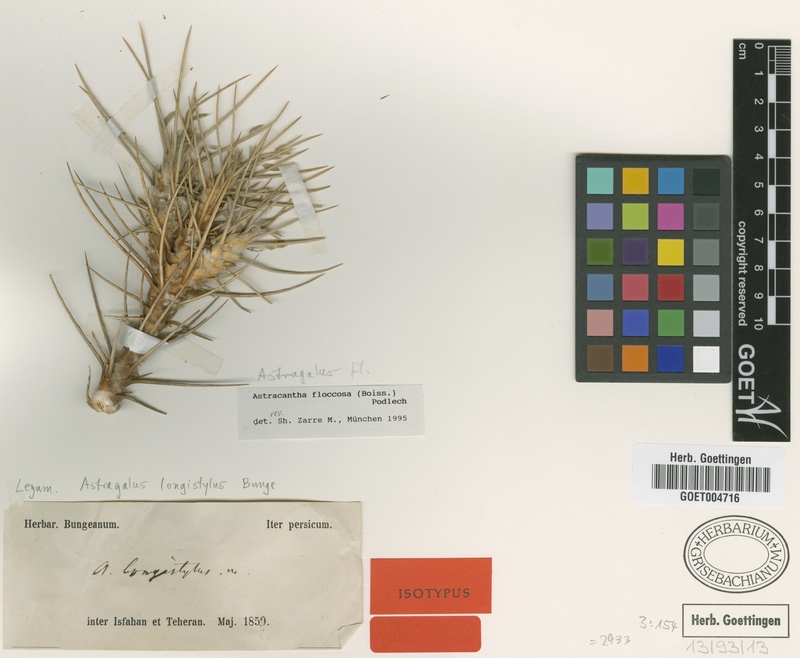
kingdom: Plantae
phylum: Tracheophyta
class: Magnoliopsida
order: Fabales
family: Fabaceae
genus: Astragalus
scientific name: Astragalus floccosus
